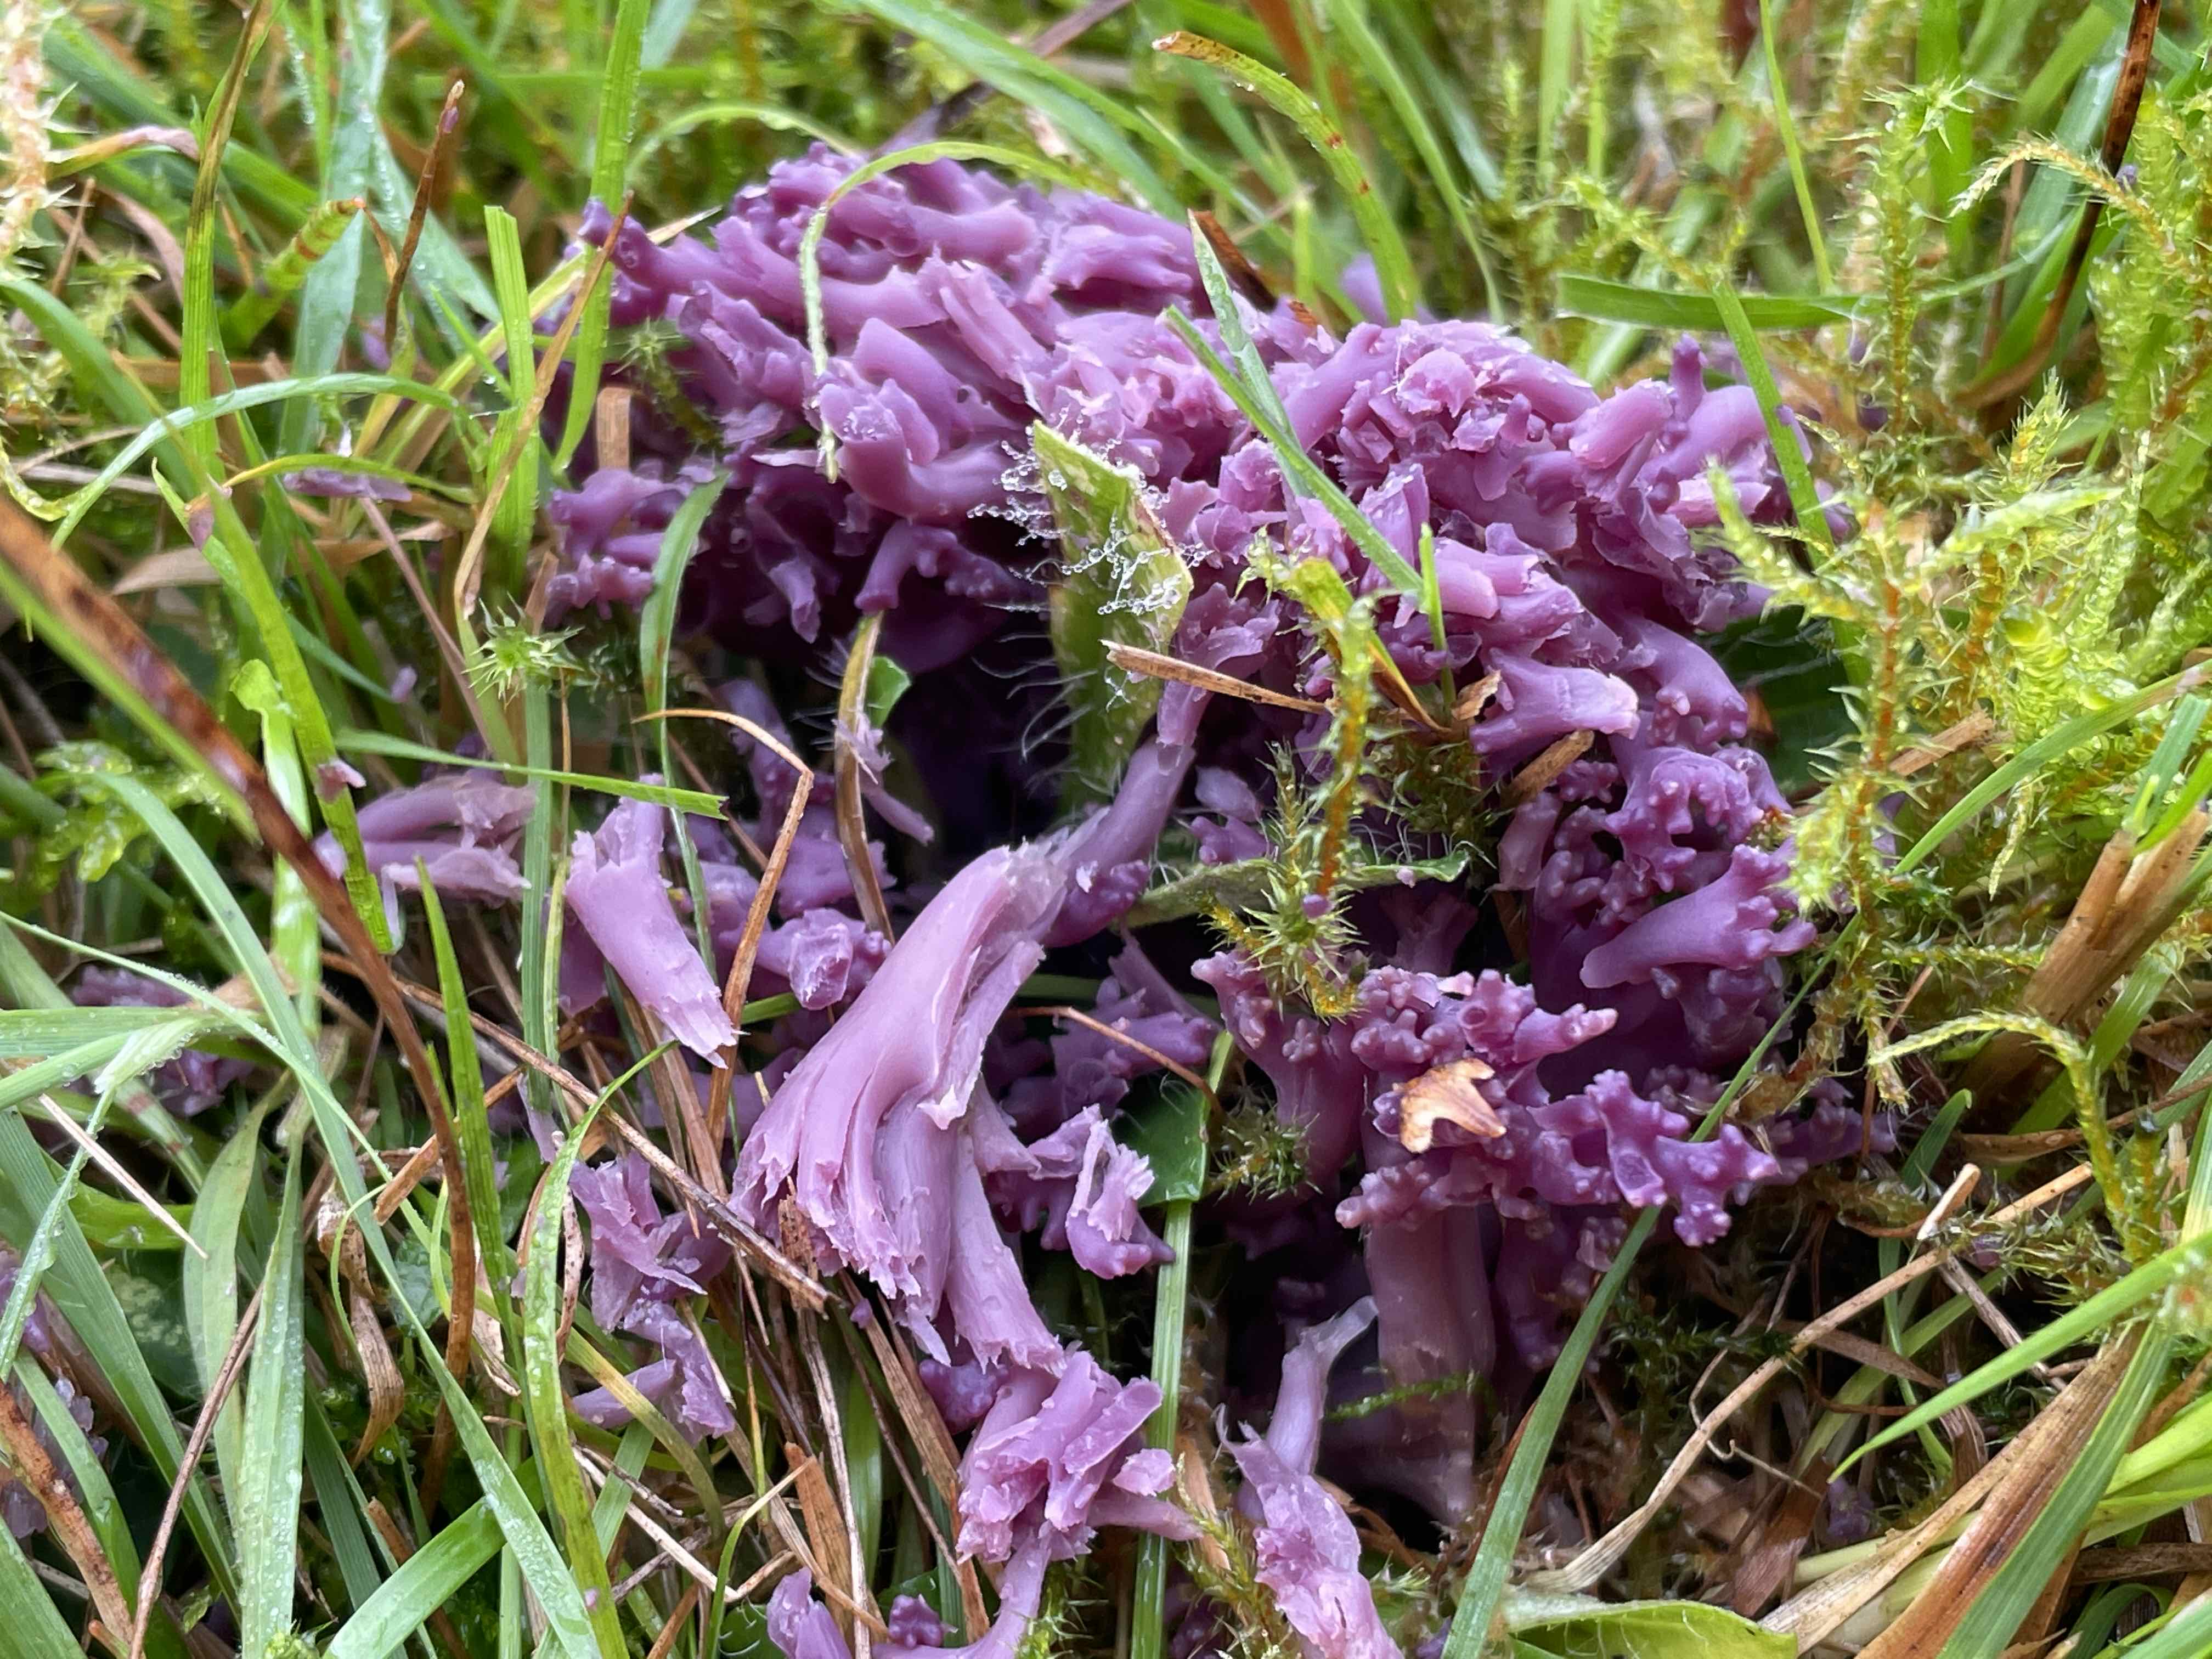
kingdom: Fungi
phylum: Basidiomycota
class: Agaricomycetes
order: Agaricales
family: Clavariaceae
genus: Clavaria
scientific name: Clavaria zollingeri
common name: purpur-køllesvamp
